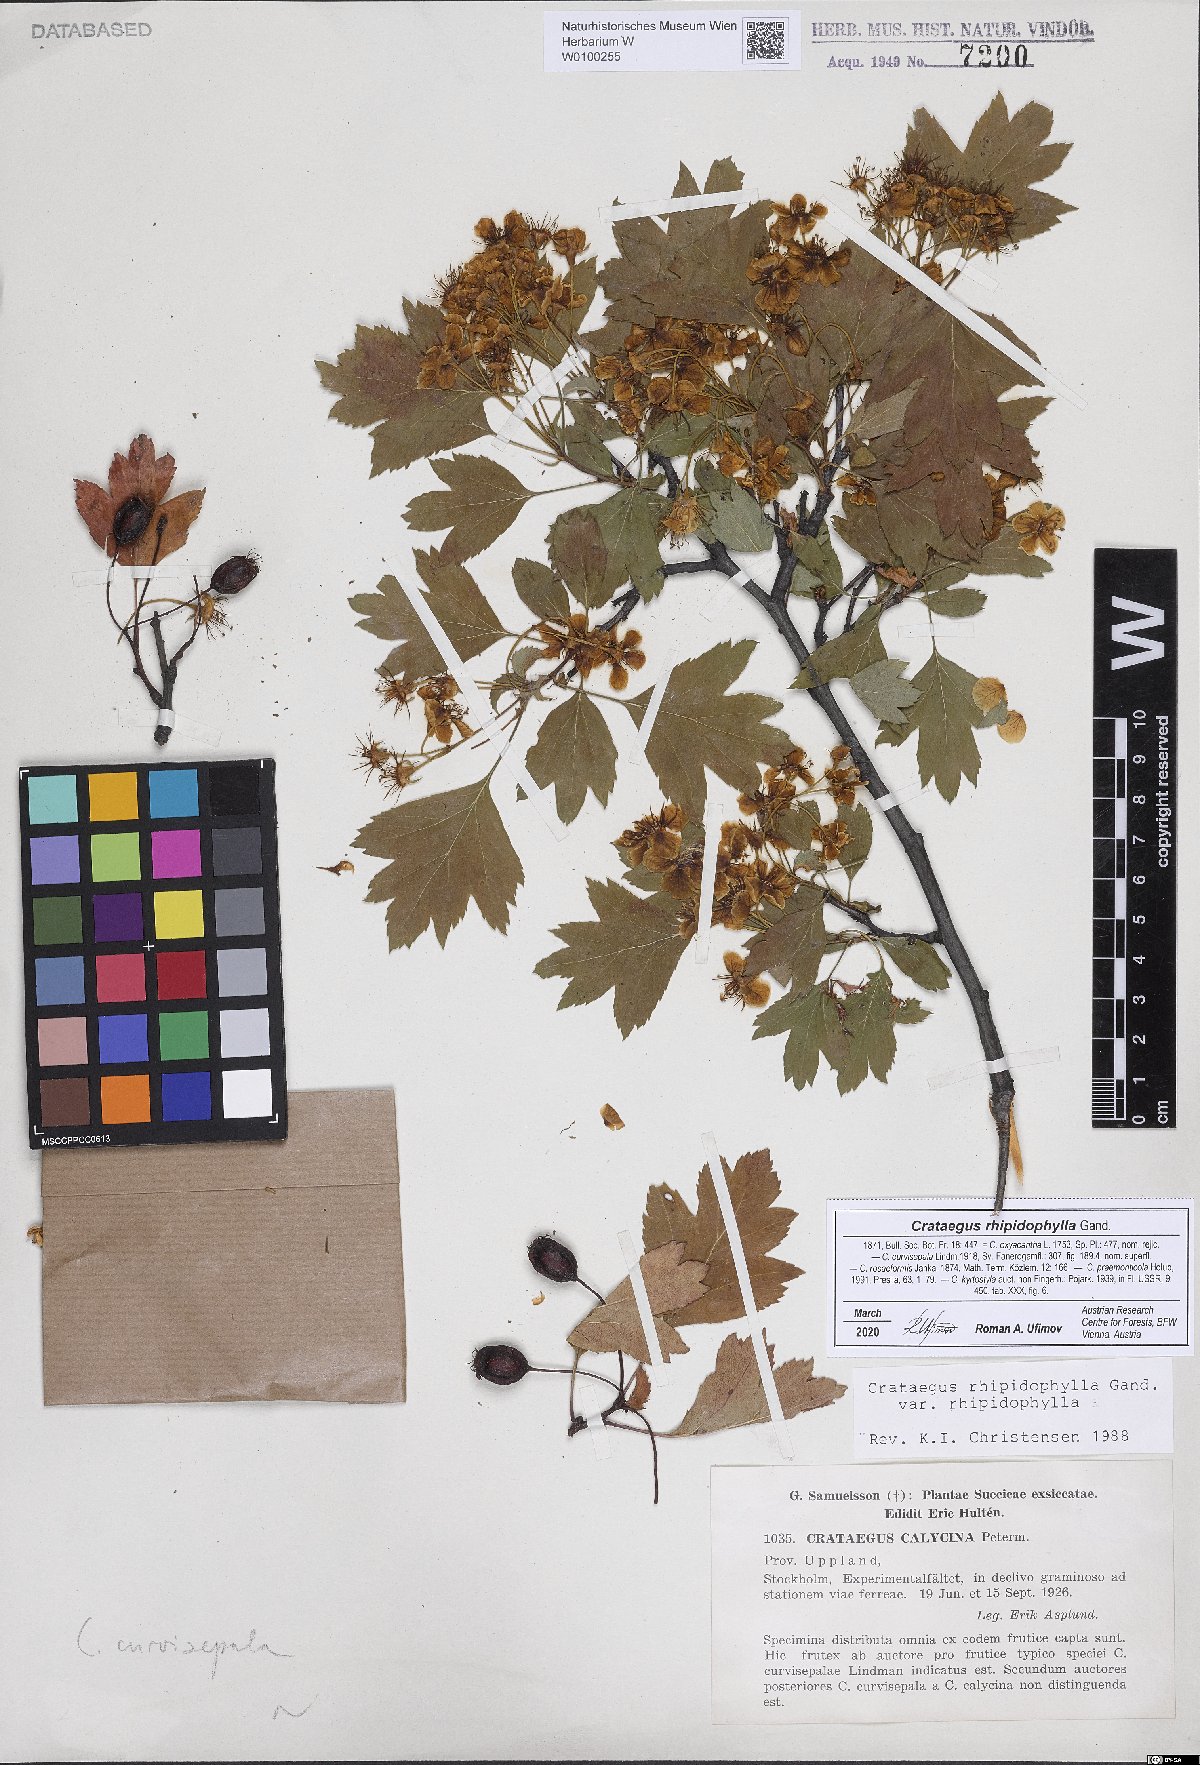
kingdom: Plantae
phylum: Tracheophyta
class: Magnoliopsida
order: Rosales
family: Rosaceae
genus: Crataegus
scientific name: Crataegus rhipidophylla
